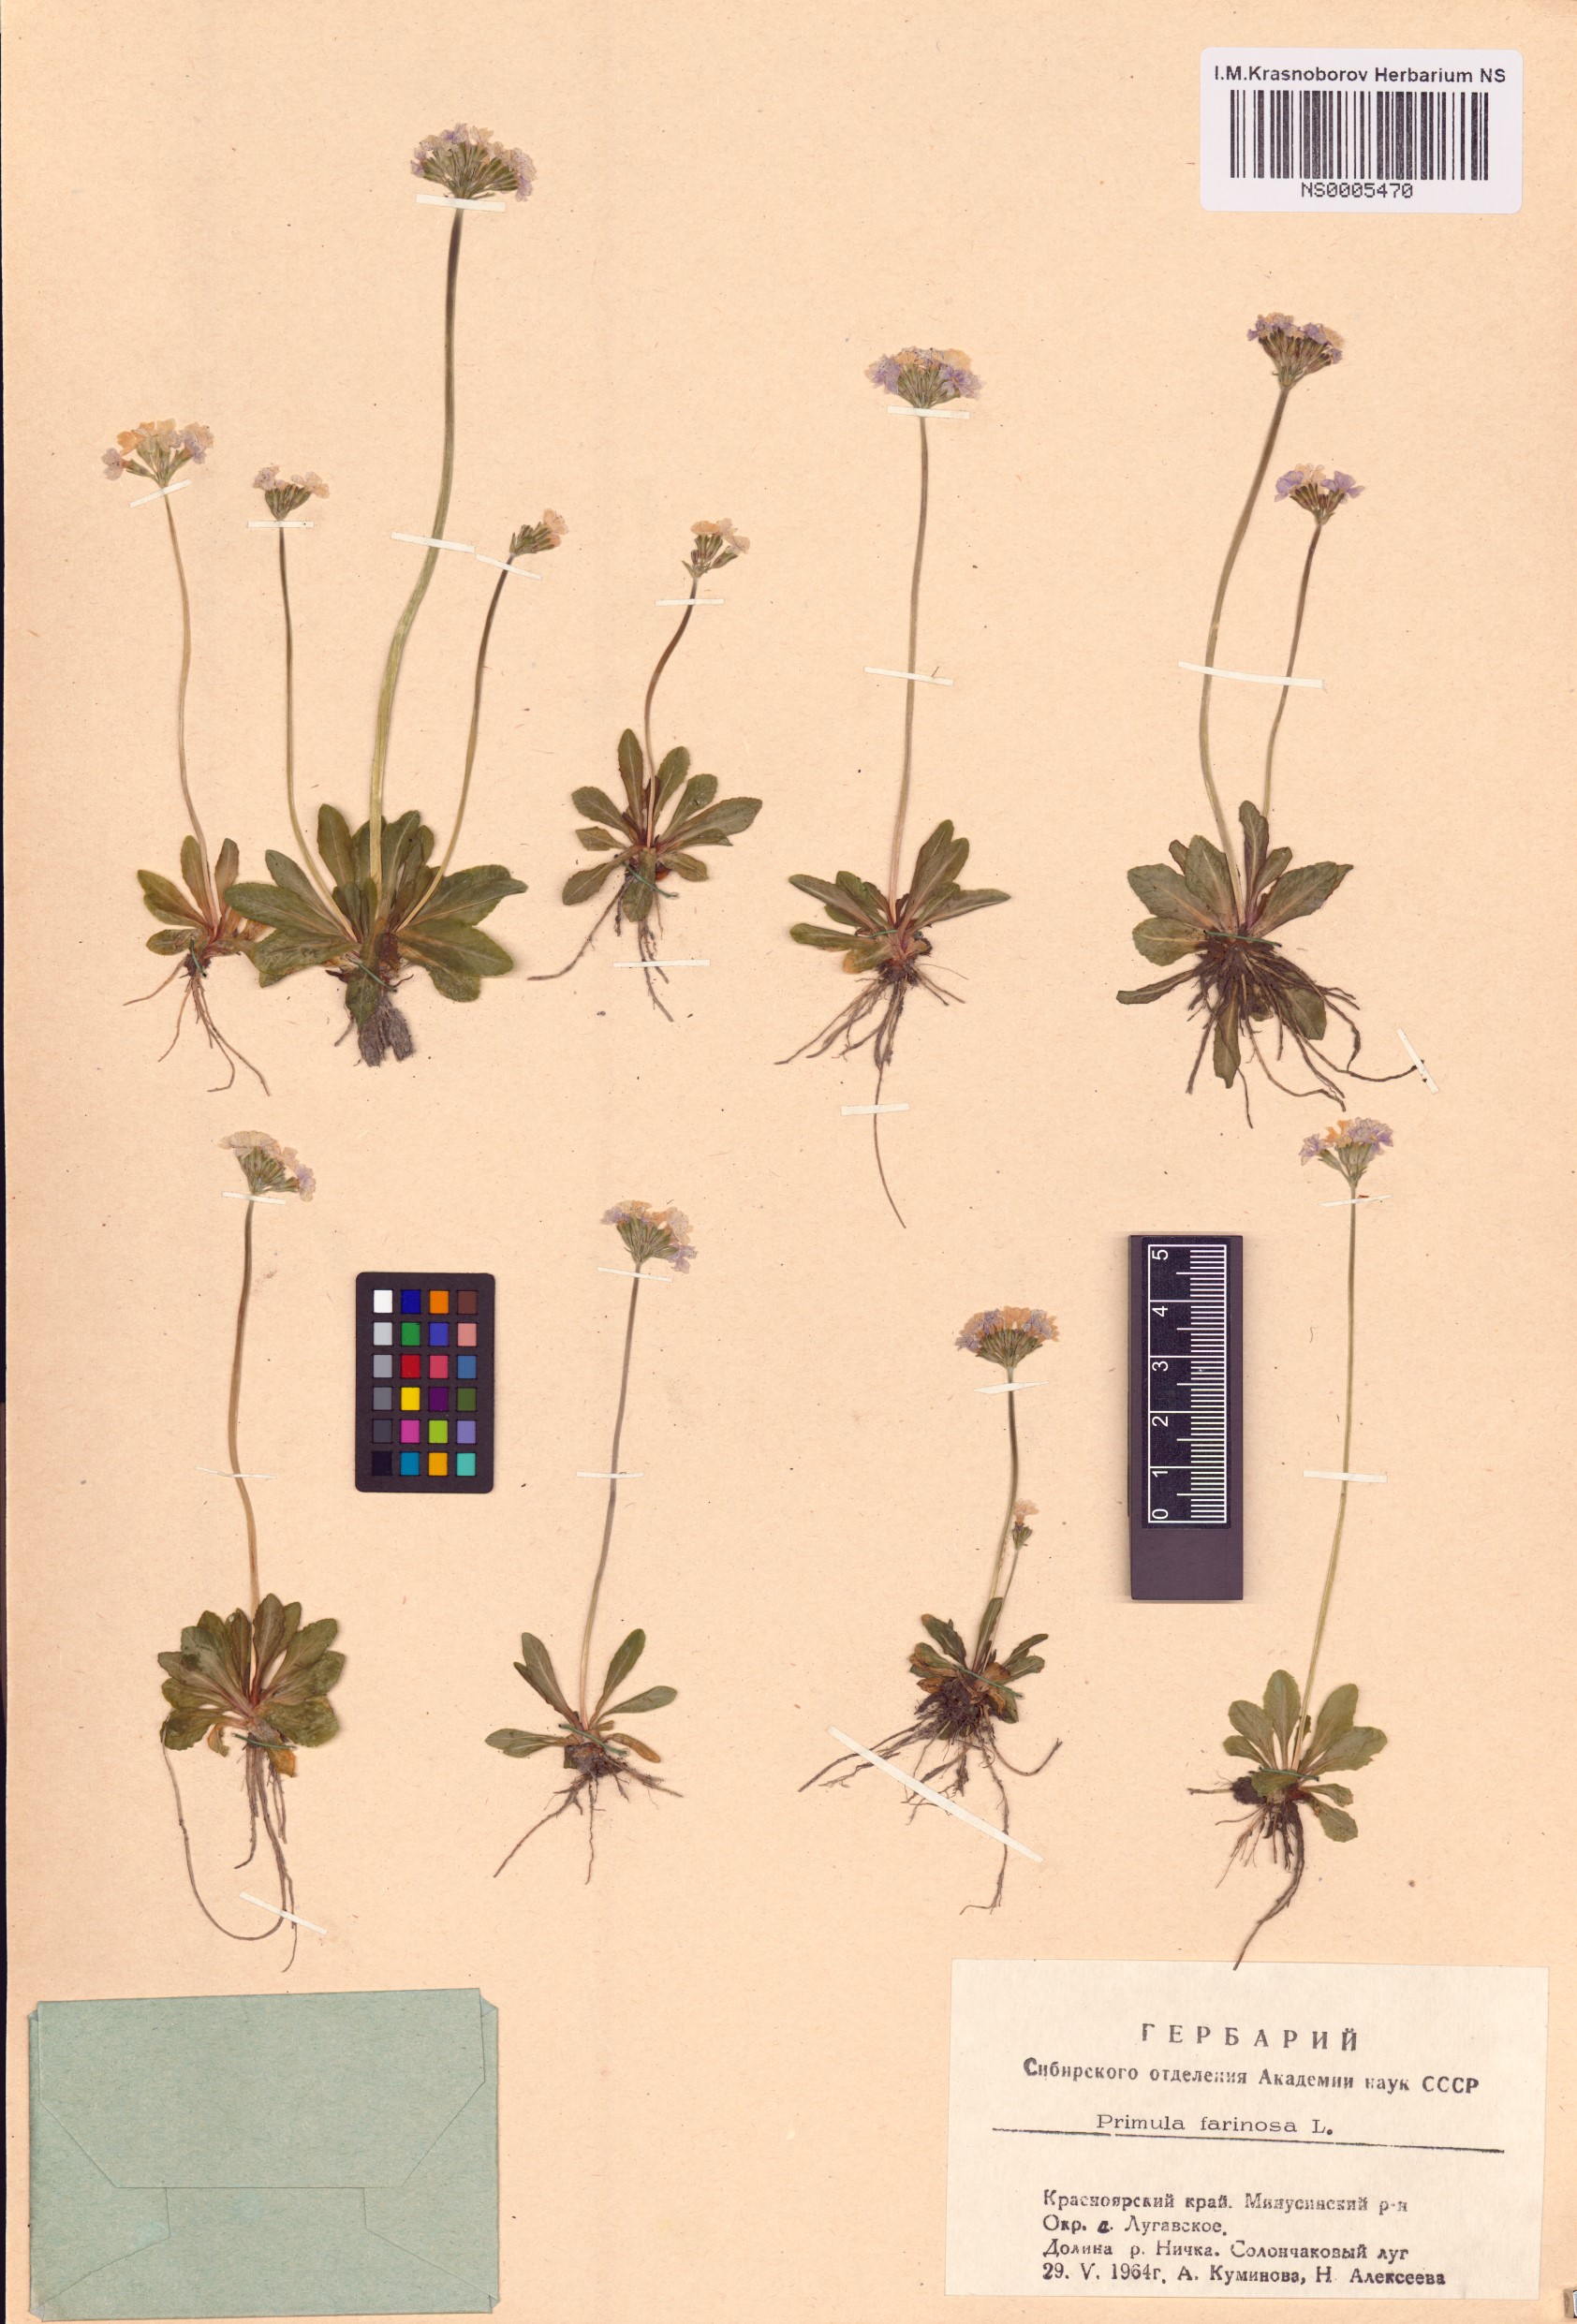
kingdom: Plantae
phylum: Tracheophyta
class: Magnoliopsida
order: Ericales
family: Primulaceae
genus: Primula
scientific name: Primula farinosa
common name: Bird's-eye primrose
